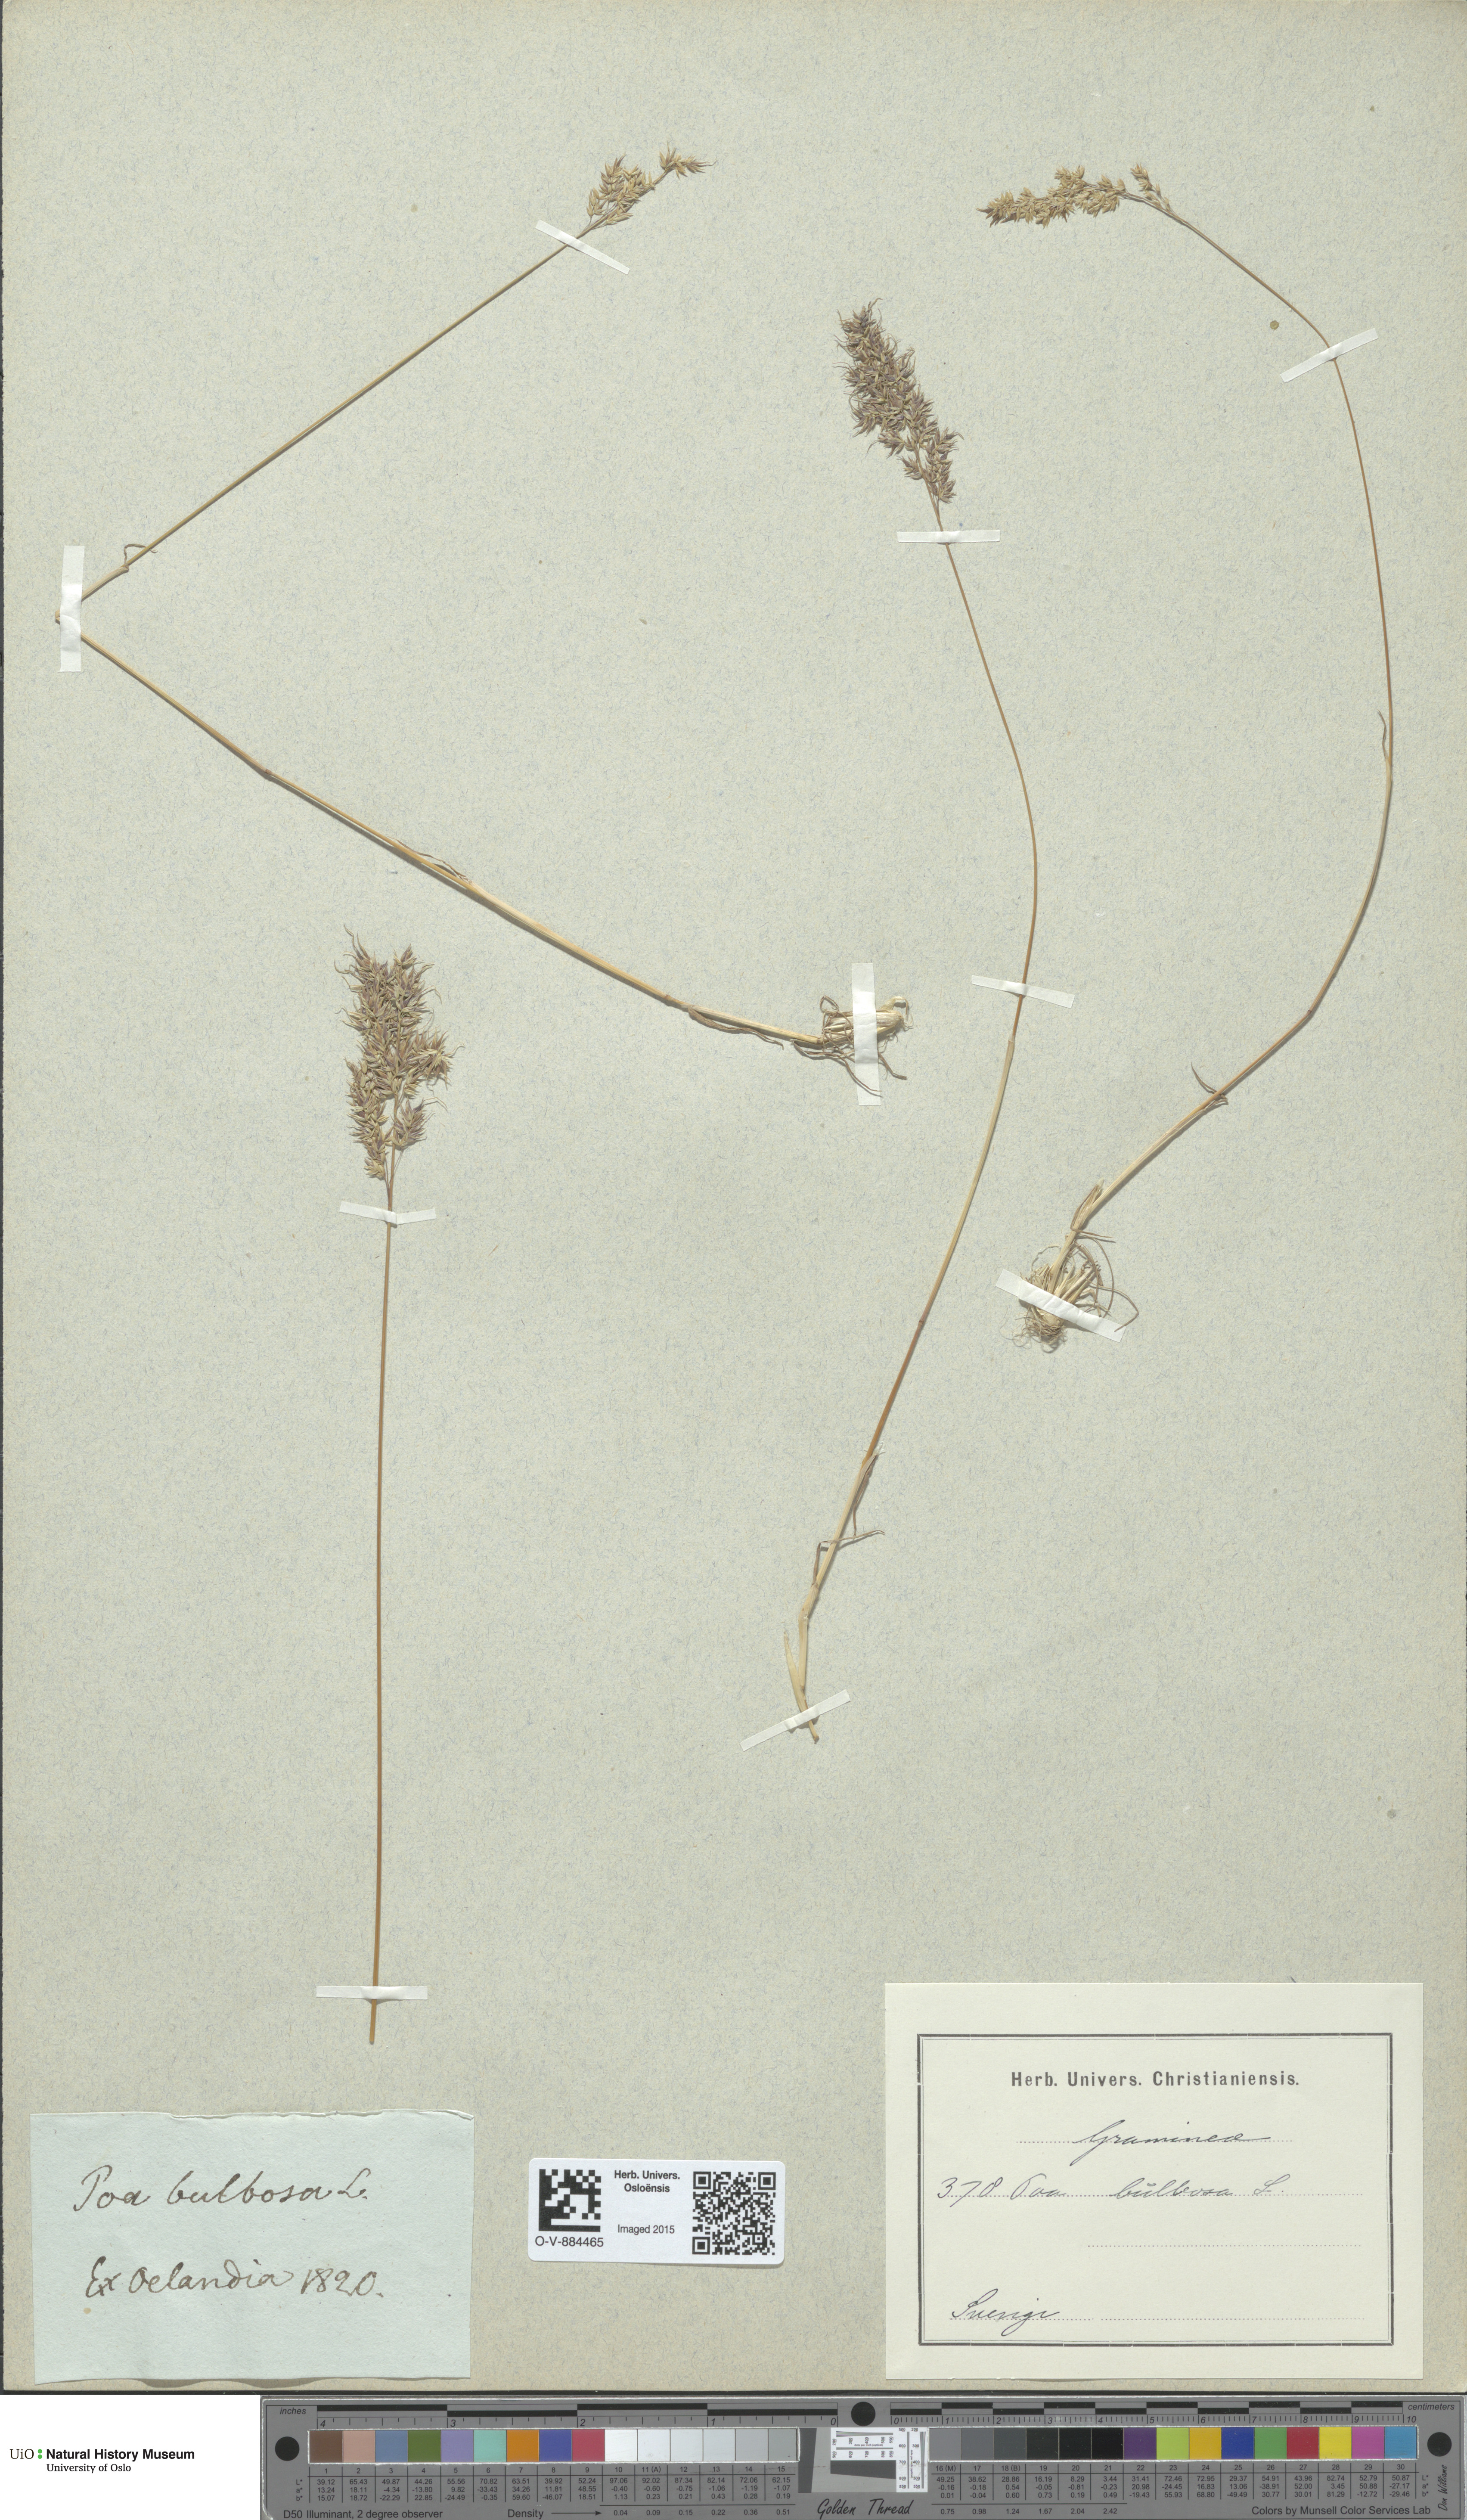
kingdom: Plantae
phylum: Tracheophyta
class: Liliopsida
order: Poales
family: Poaceae
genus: Poa
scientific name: Poa bulbosa
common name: Bulbous bluegrass
